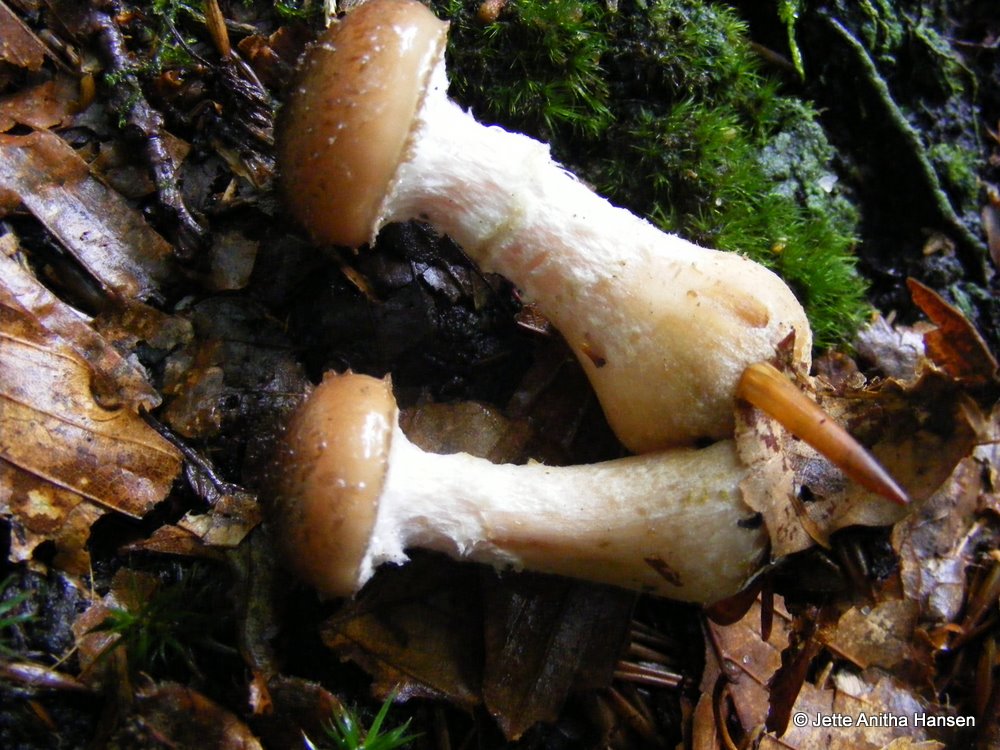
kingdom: Fungi
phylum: Basidiomycota
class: Agaricomycetes
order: Agaricales
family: Physalacriaceae
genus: Armillaria
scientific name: Armillaria lutea
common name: køllestokket honningsvamp
